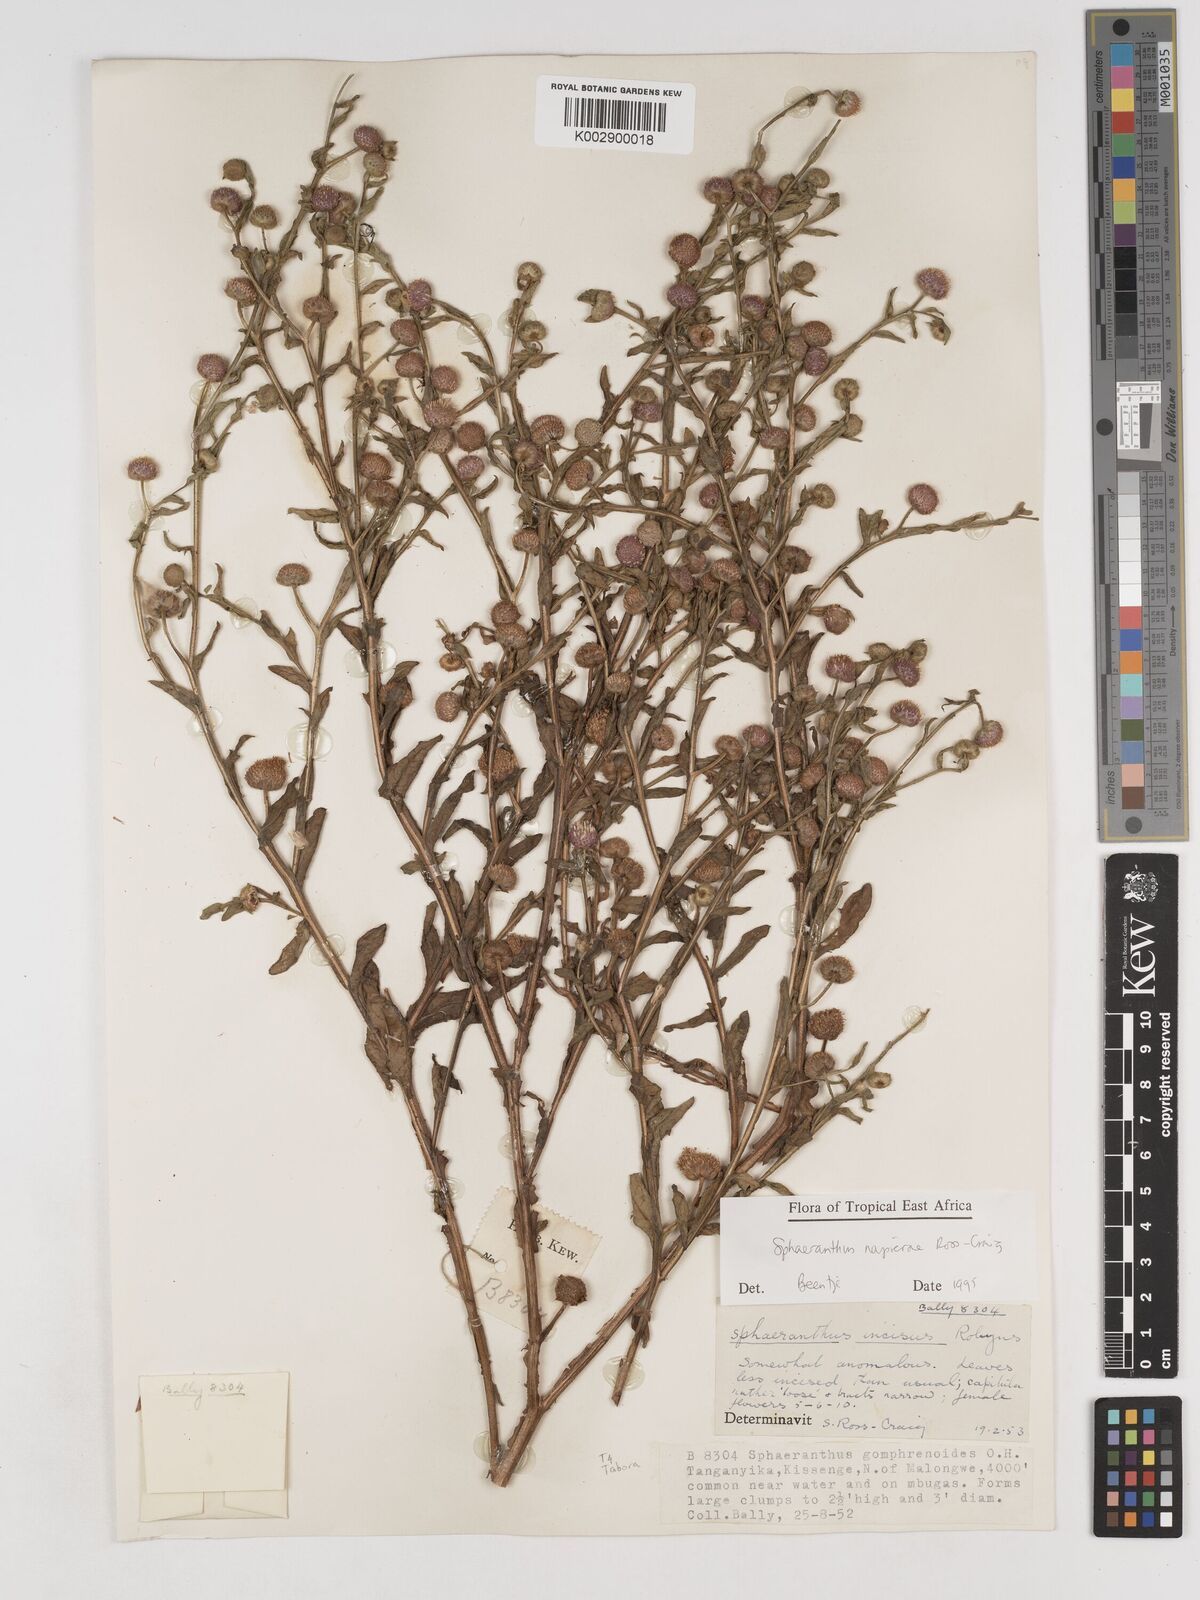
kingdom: Plantae
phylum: Tracheophyta
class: Magnoliopsida
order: Asterales
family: Asteraceae
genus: Sphaeranthus
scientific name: Sphaeranthus suaveolens
